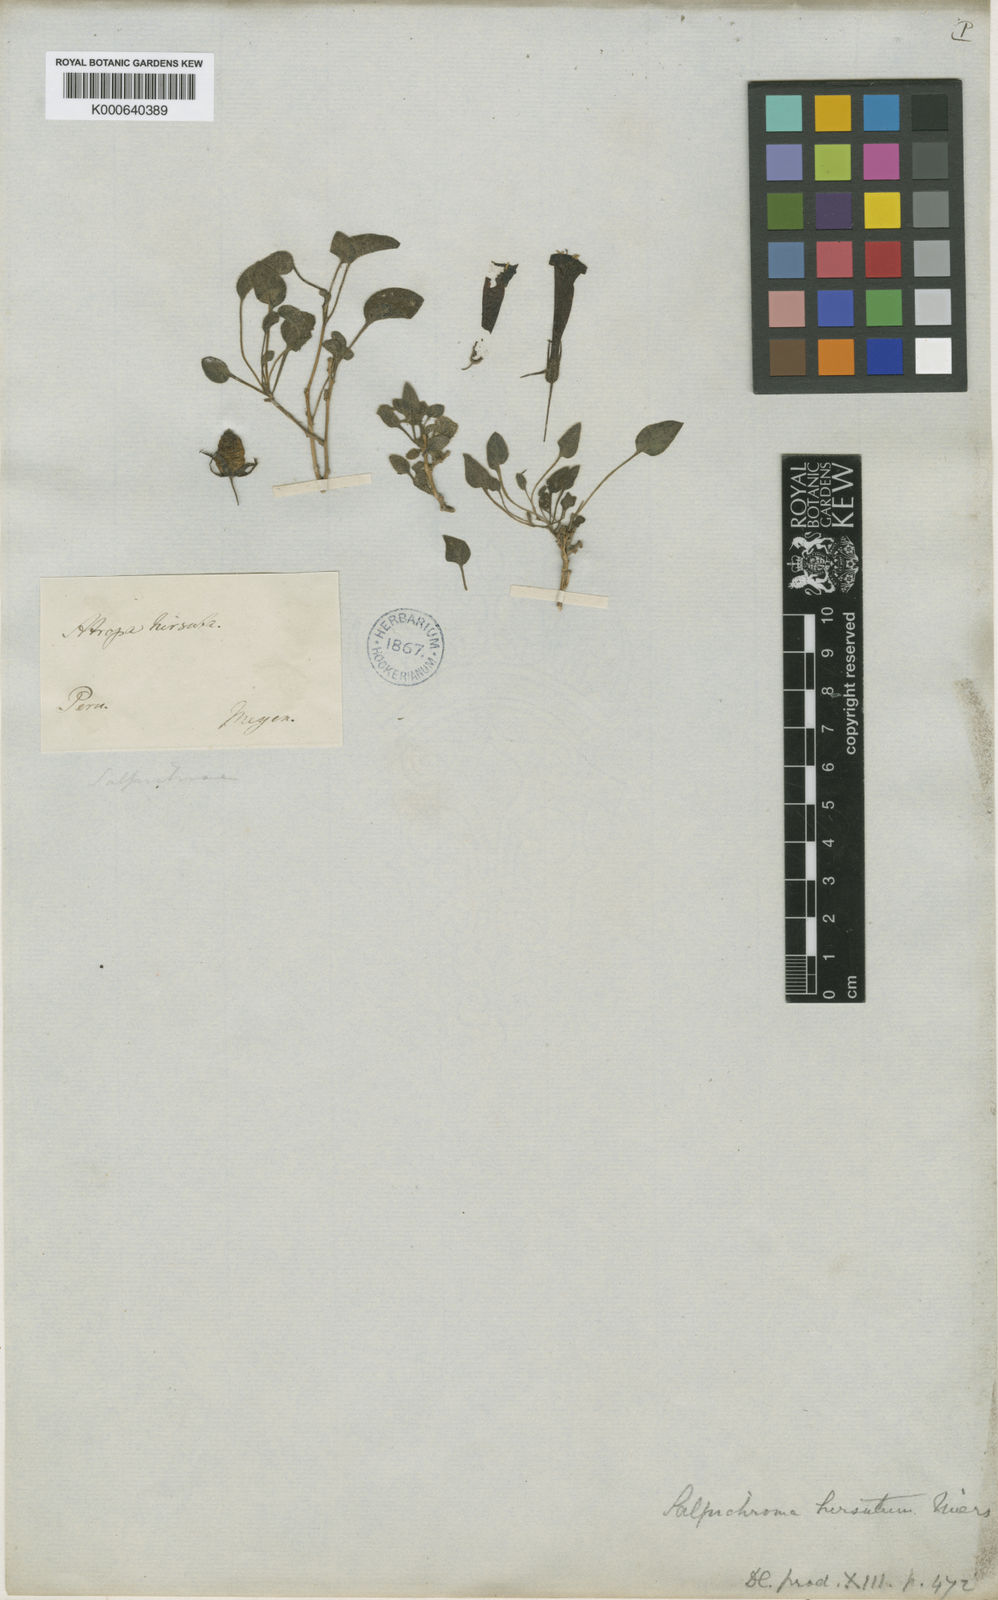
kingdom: Plantae
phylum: Tracheophyta
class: Magnoliopsida
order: Solanales
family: Solanaceae
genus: Salpichroa
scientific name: Salpichroa hirsuta
